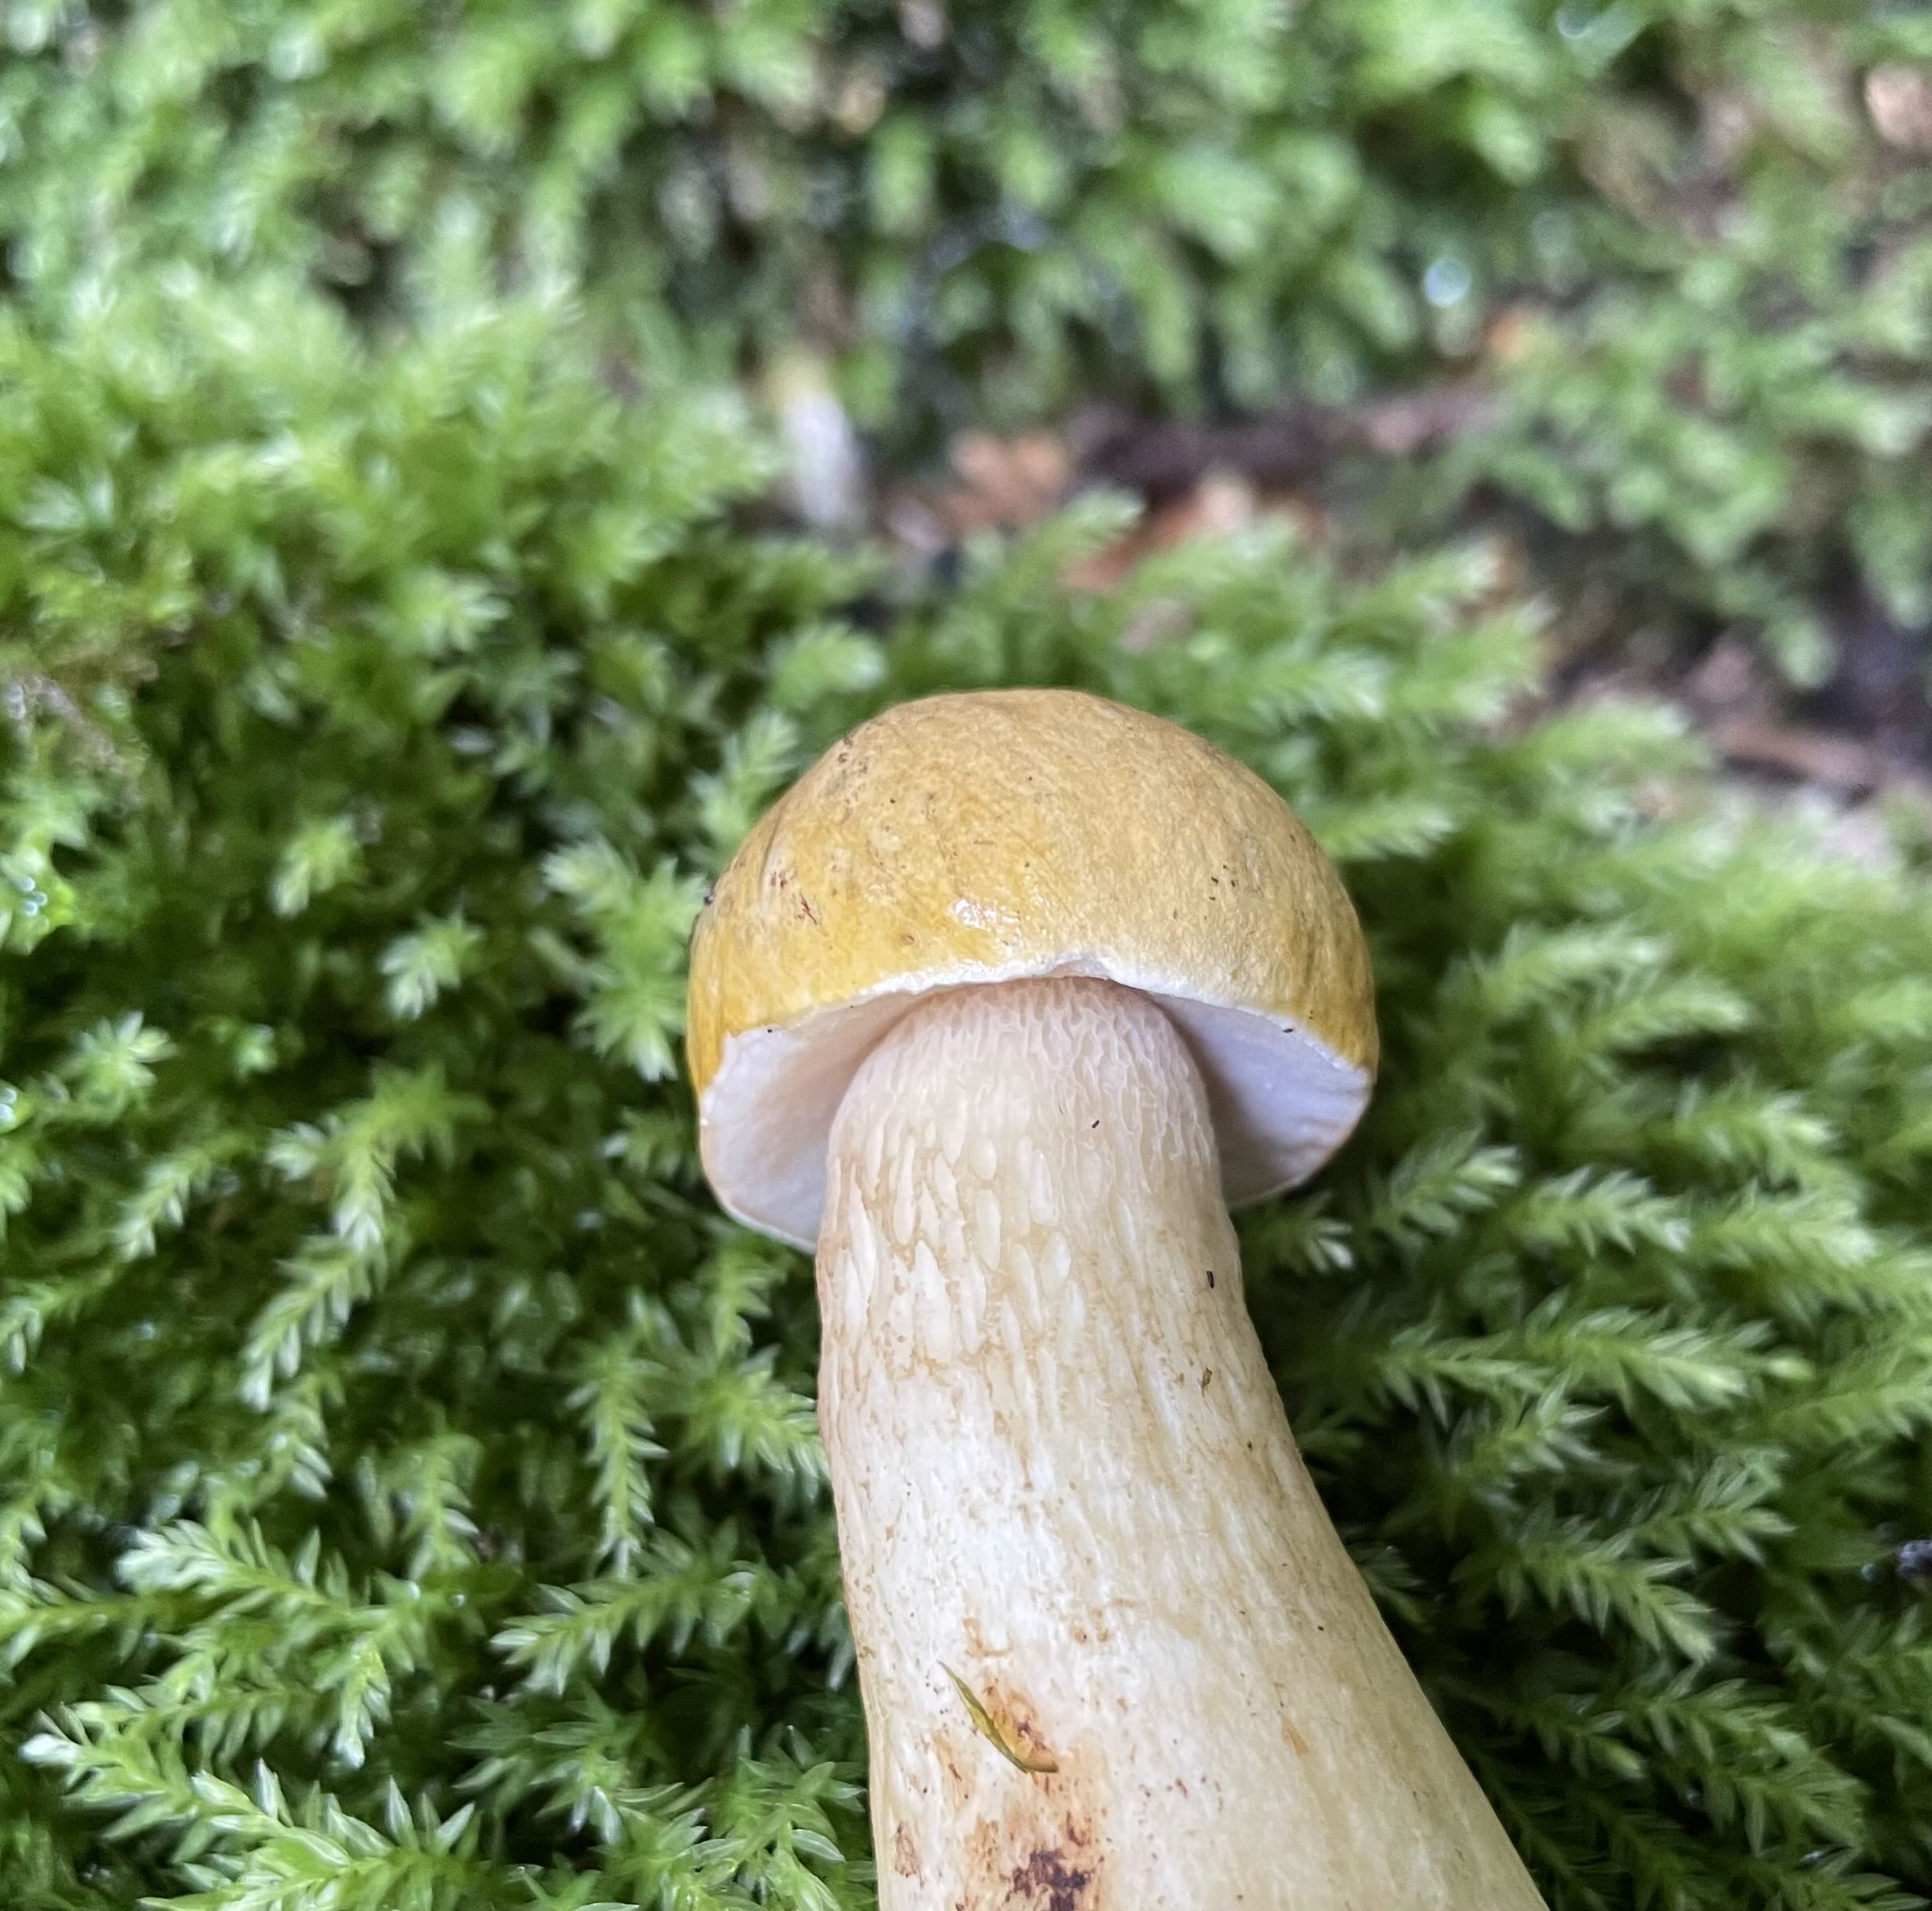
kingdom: Fungi
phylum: Basidiomycota
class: Agaricomycetes
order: Boletales
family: Boletaceae
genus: Tylopilus
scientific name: Tylopilus felleus
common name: galderørhat
